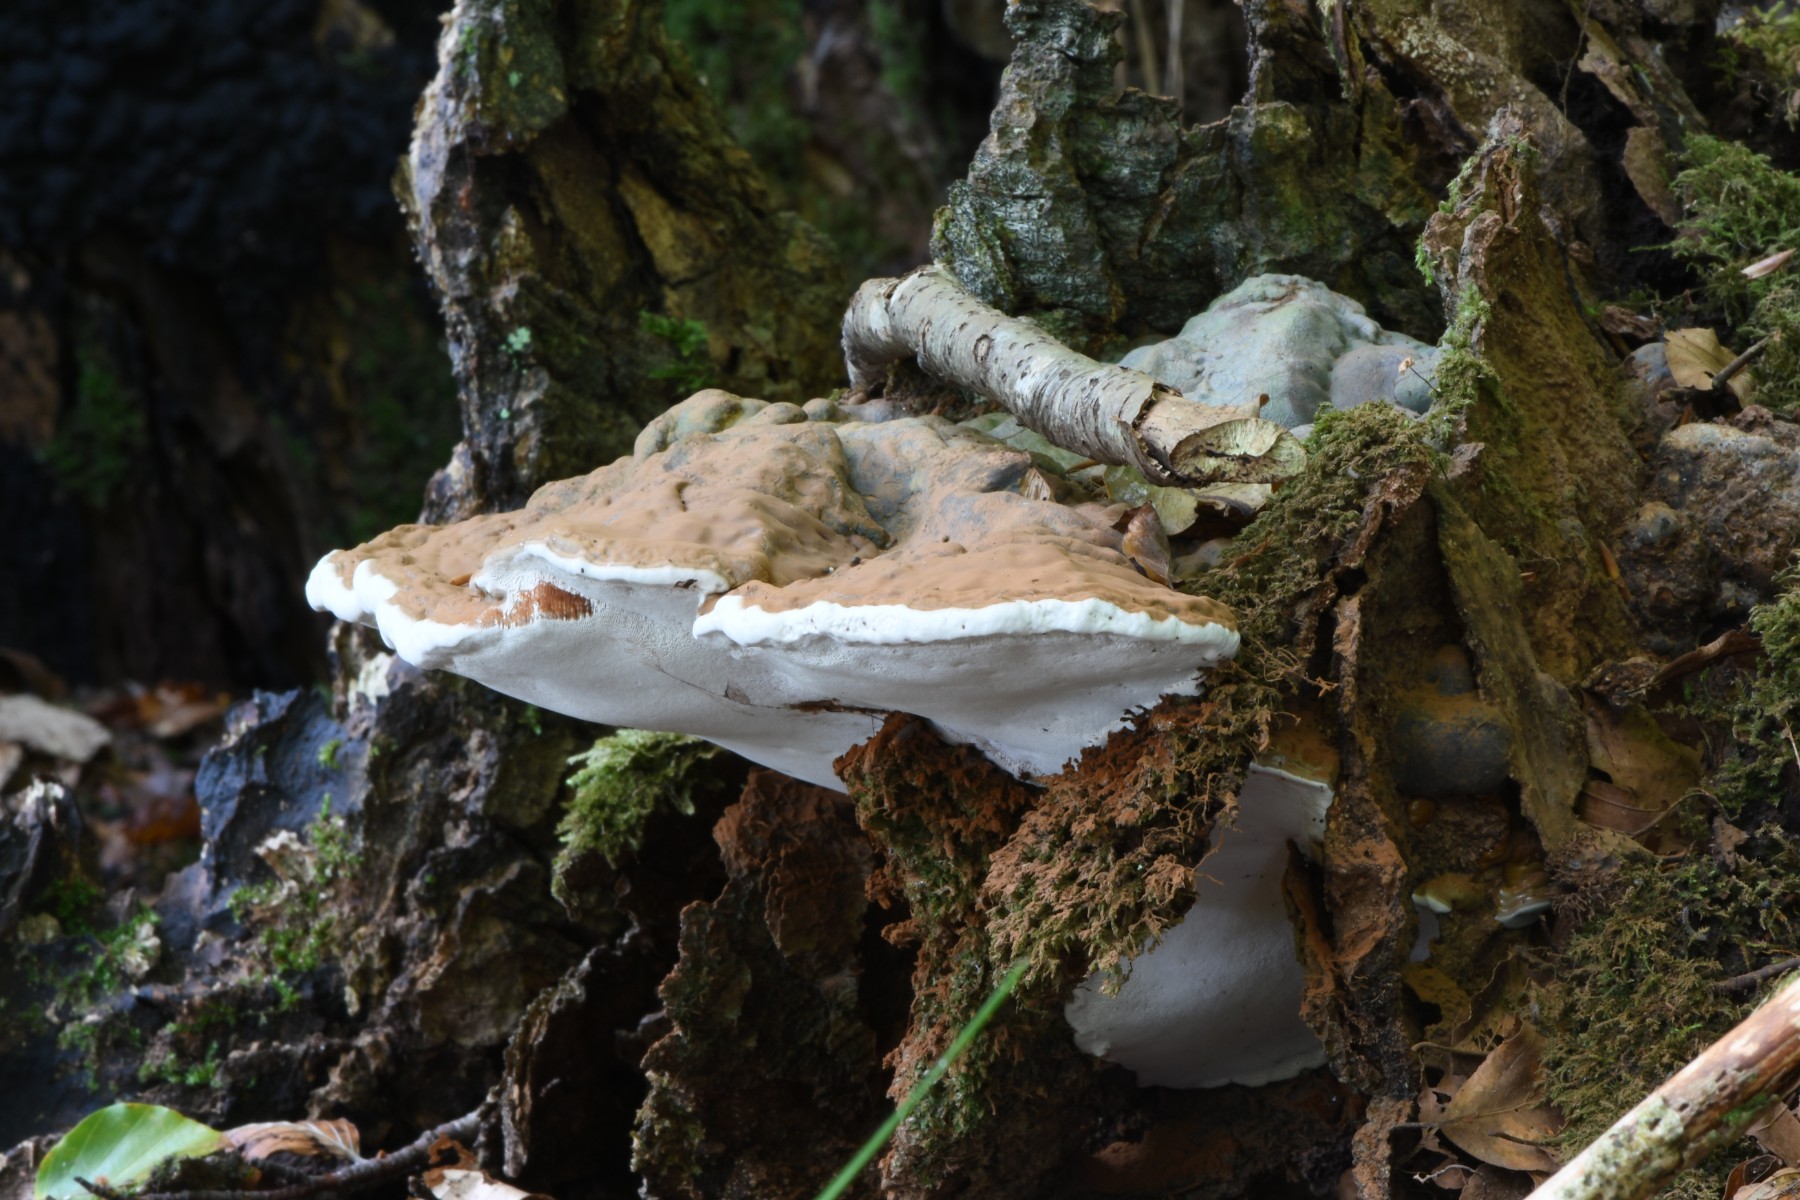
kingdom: Fungi
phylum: Basidiomycota
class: Agaricomycetes
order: Polyporales
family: Polyporaceae
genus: Ganoderma
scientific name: Ganoderma applanatum
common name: flad lakporesvamp
